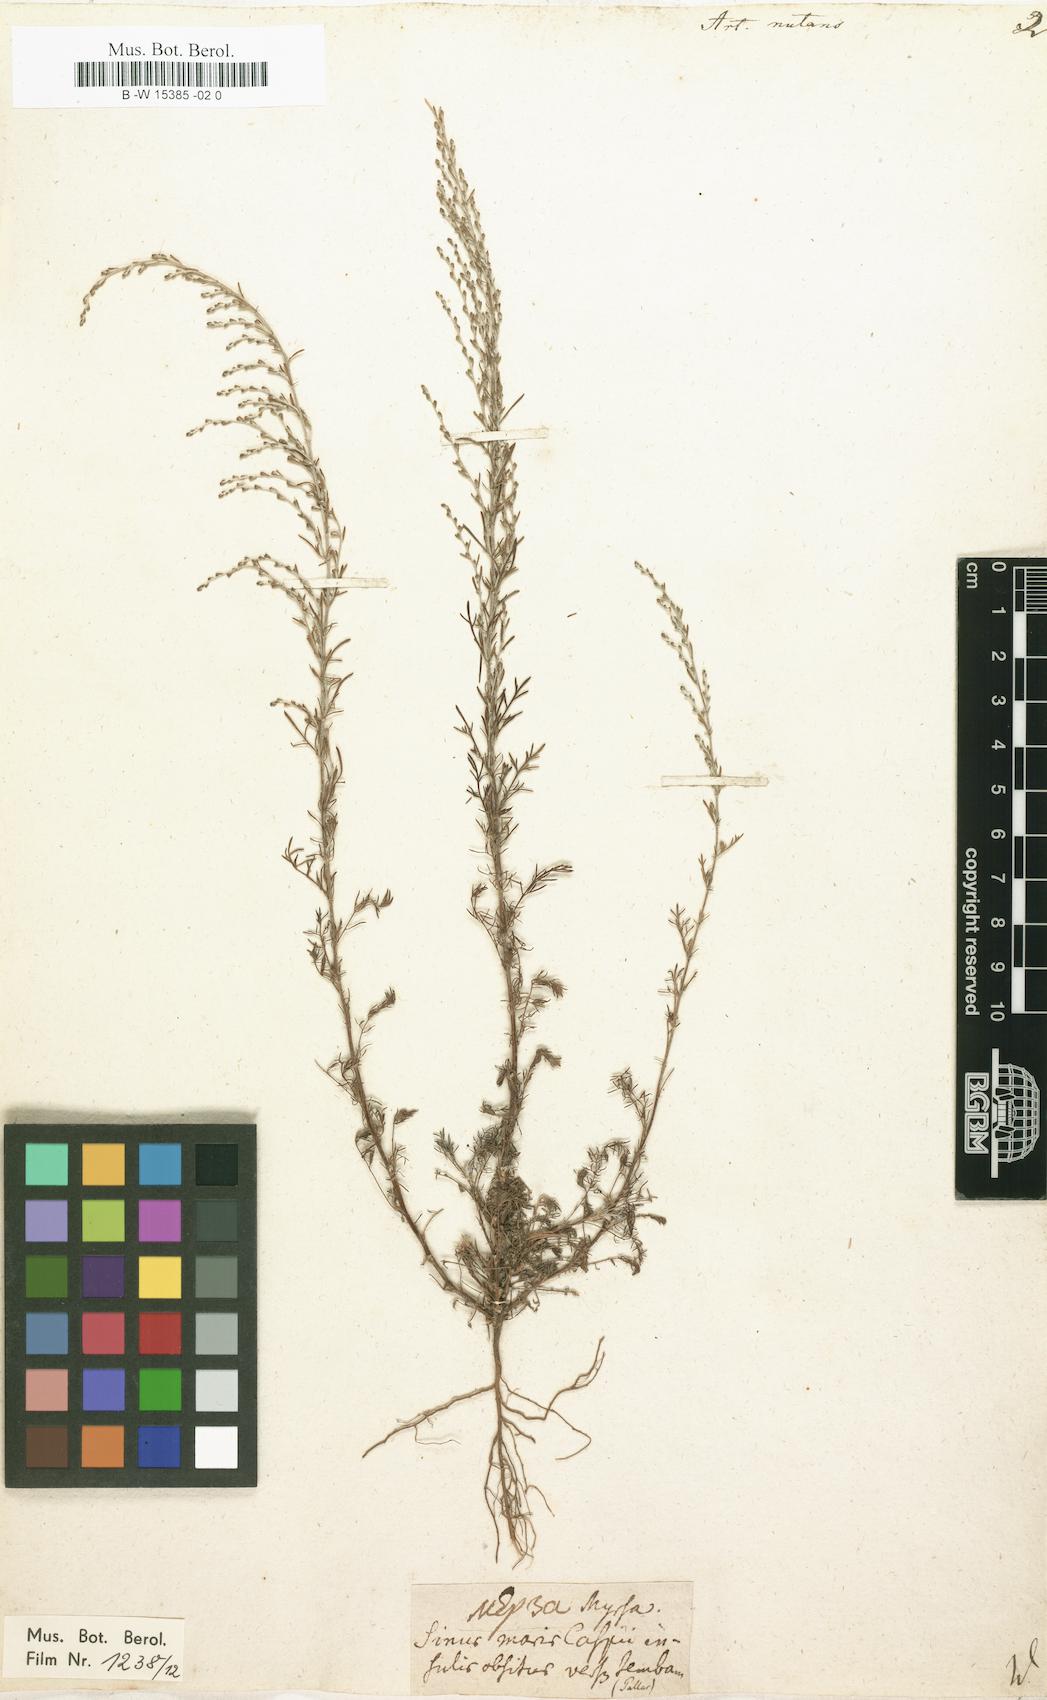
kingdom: Plantae
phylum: Tracheophyta
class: Magnoliopsida
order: Asterales
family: Asteraceae
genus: Artemisia
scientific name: Artemisia nutans
